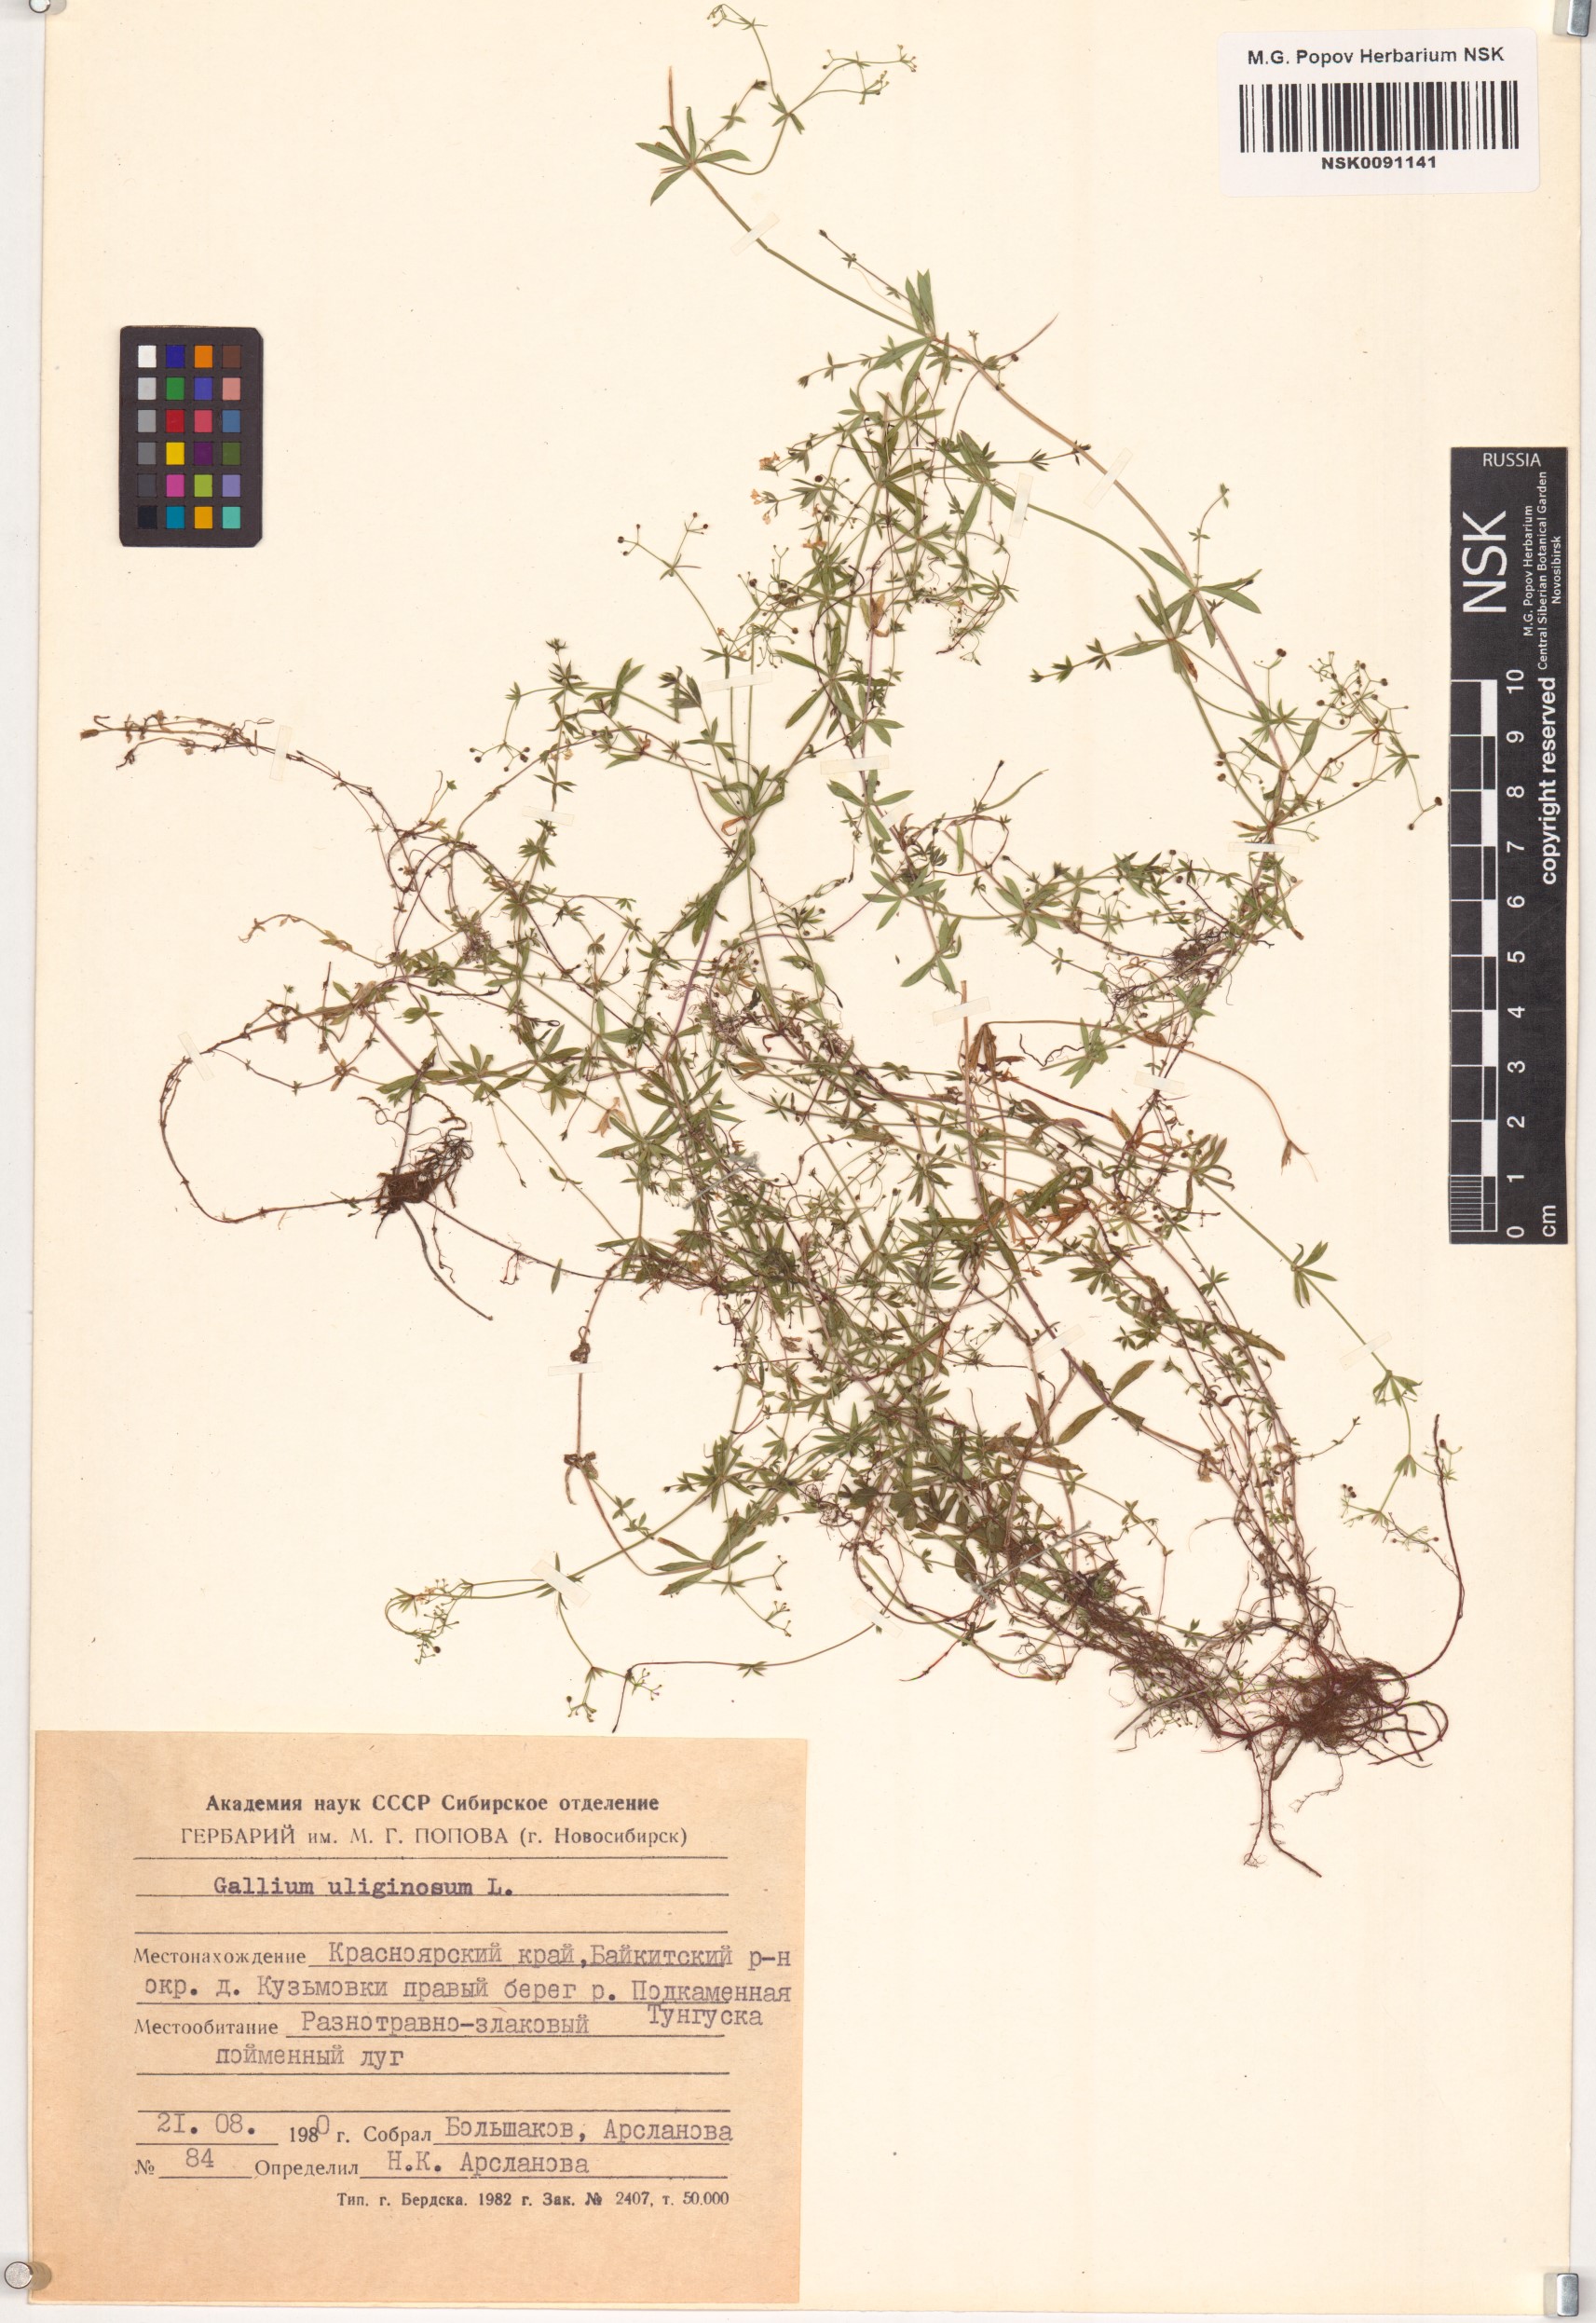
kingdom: Plantae
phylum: Tracheophyta
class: Magnoliopsida
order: Gentianales
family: Rubiaceae
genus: Galium
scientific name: Galium uliginosum
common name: Fen bedstraw
